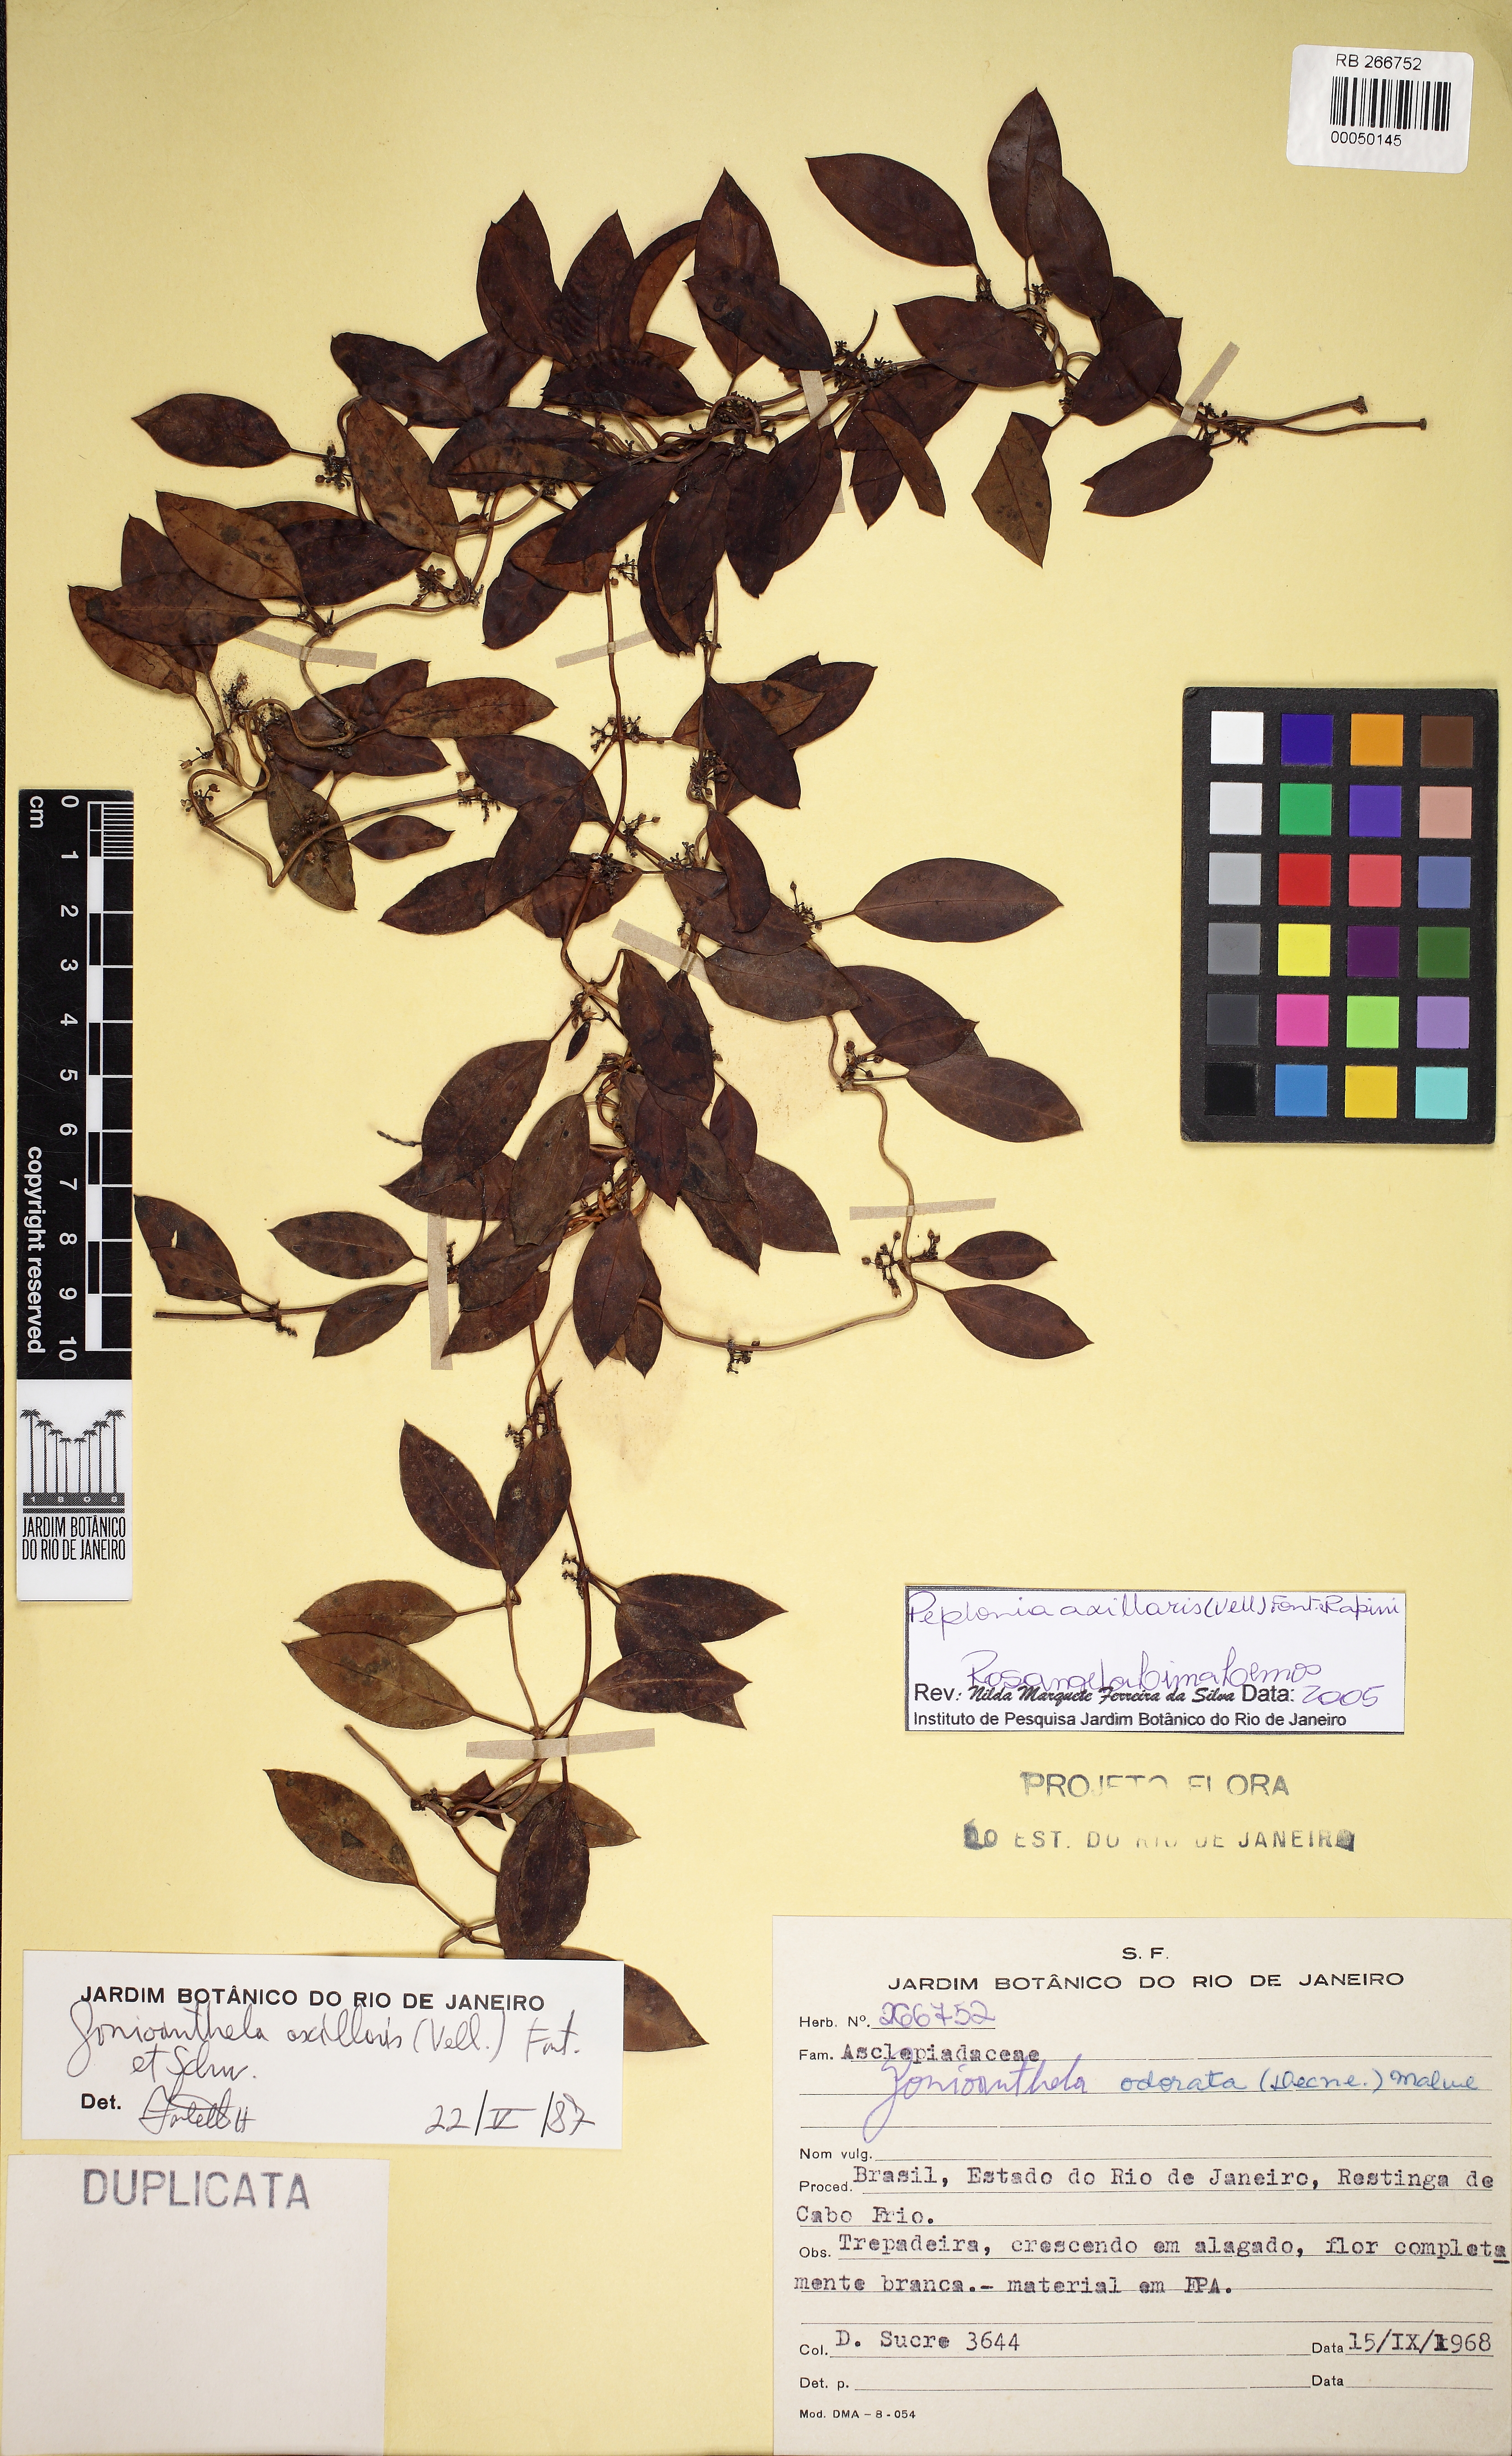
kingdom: Plantae
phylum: Tracheophyta
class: Magnoliopsida
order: Gentianales
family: Apocynaceae
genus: Peplonia
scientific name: Peplonia axillaris
